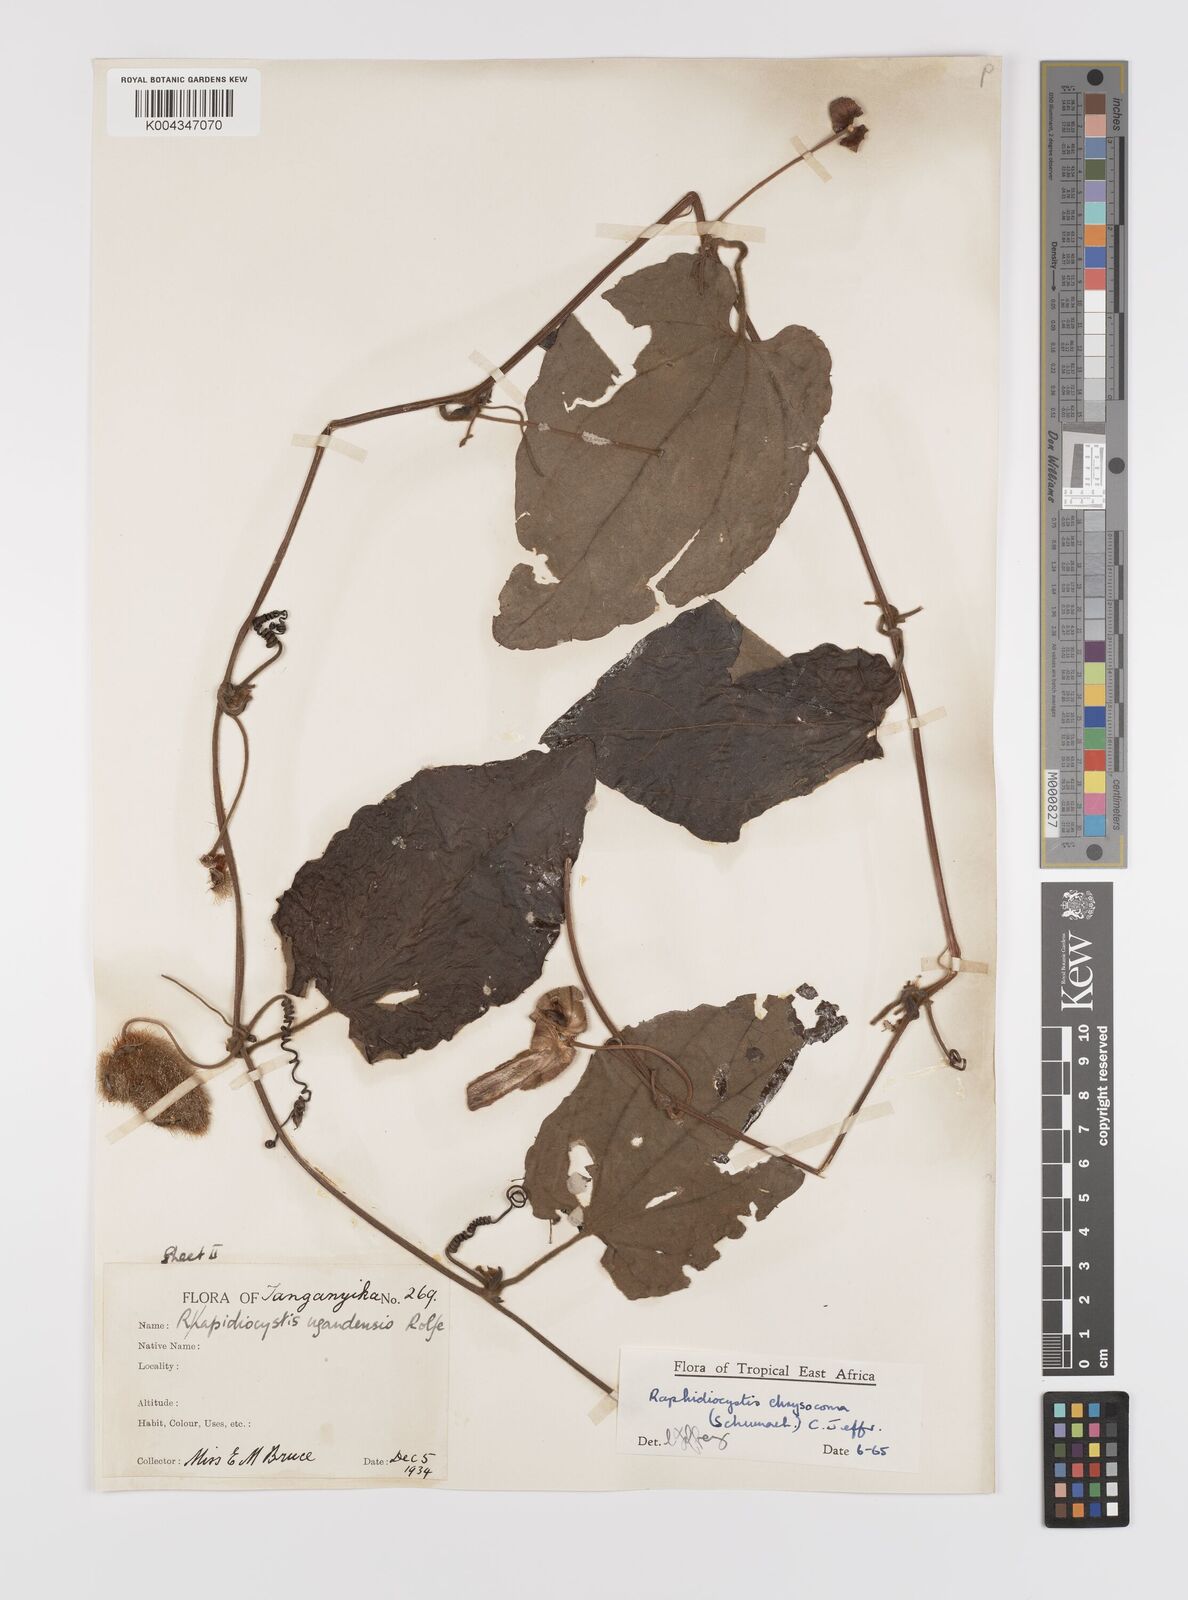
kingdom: Plantae
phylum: Tracheophyta
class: Magnoliopsida
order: Cucurbitales
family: Cucurbitaceae
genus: Raphidiocystis
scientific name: Raphidiocystis chrysocoma
